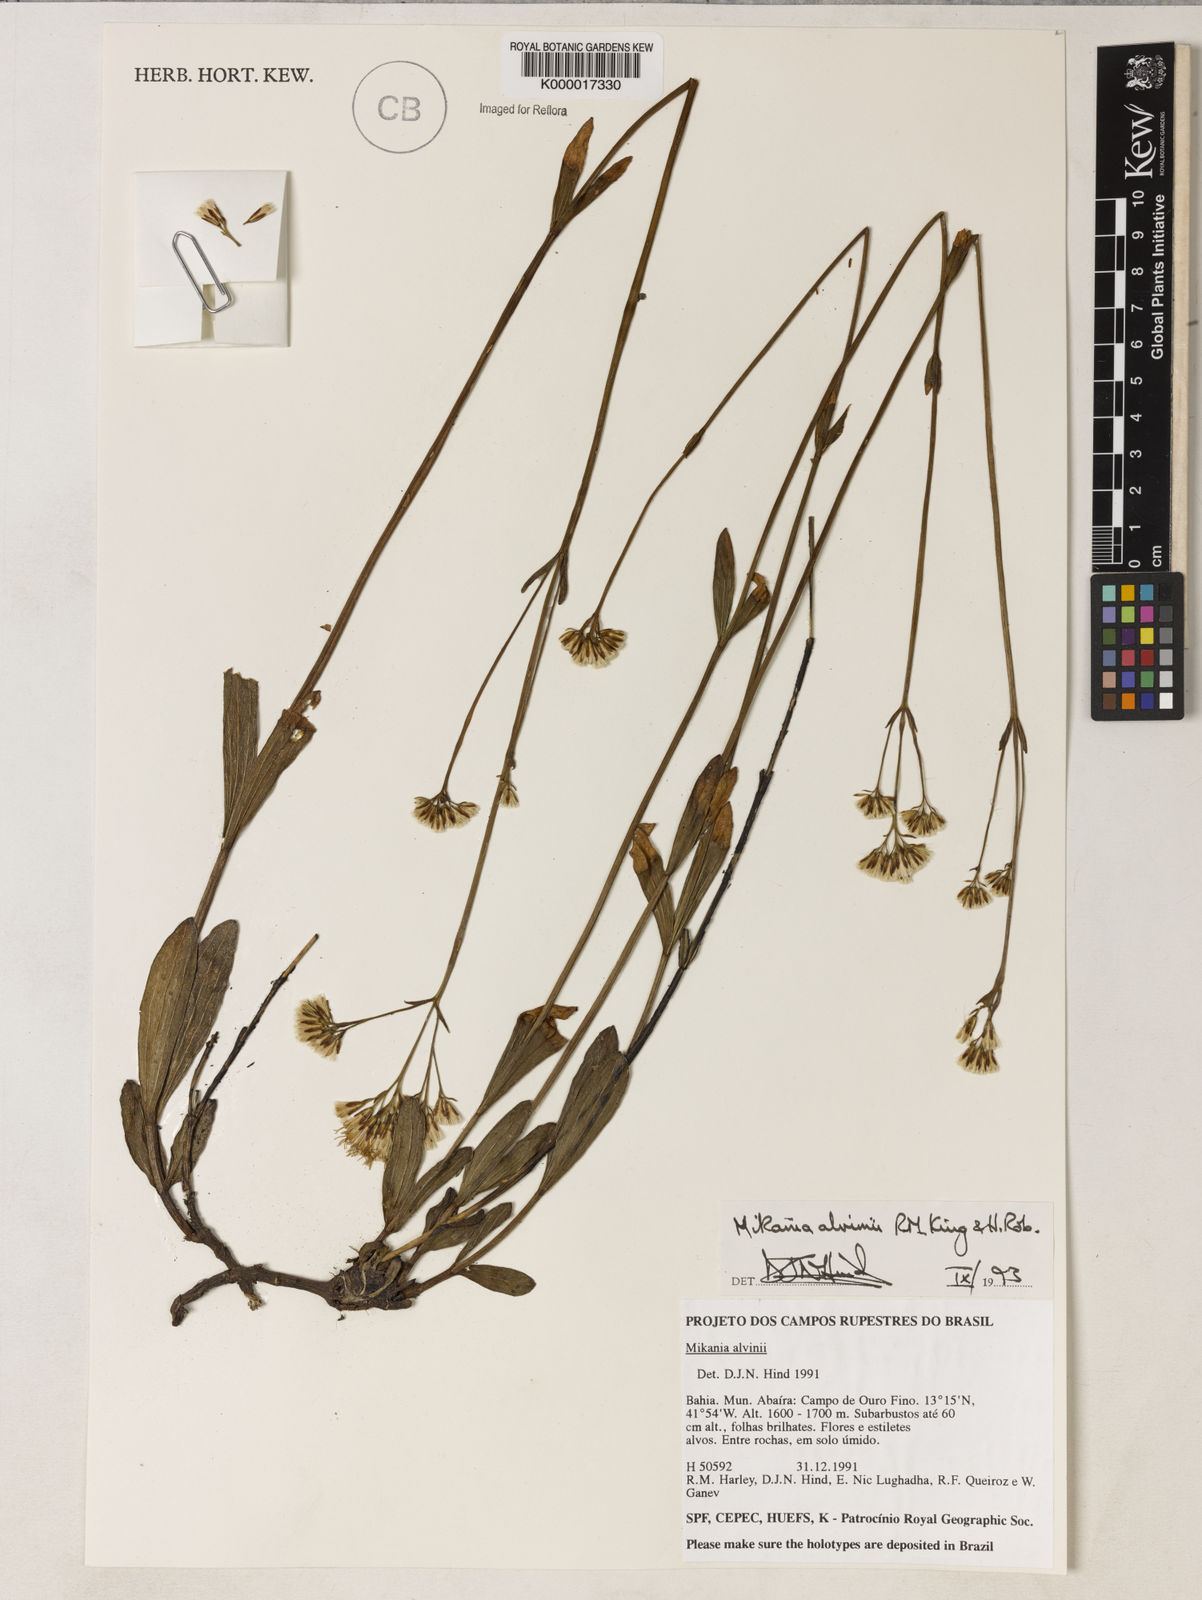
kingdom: Plantae
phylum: Tracheophyta
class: Magnoliopsida
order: Asterales
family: Asteraceae
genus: Mikania
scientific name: Mikania alvimii
